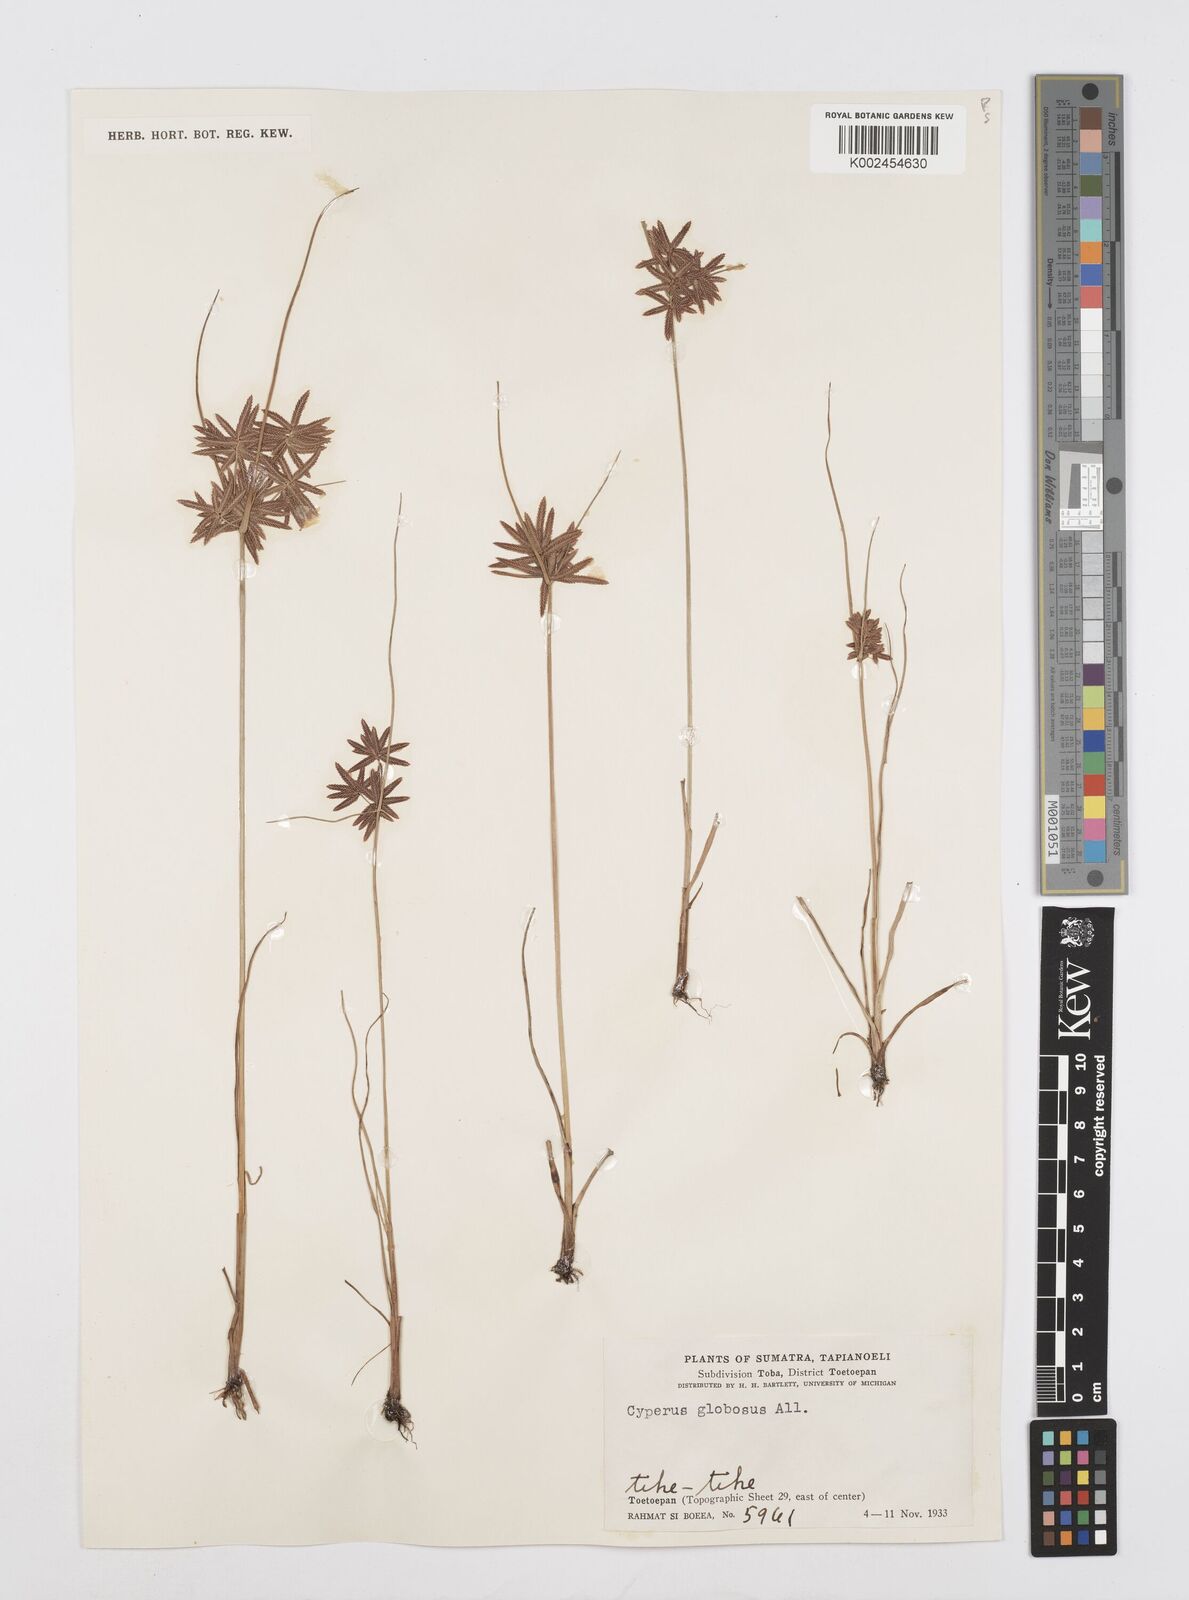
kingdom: Plantae
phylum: Tracheophyta
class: Liliopsida
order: Poales
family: Cyperaceae
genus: Cyperus
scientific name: Cyperus flavidus
